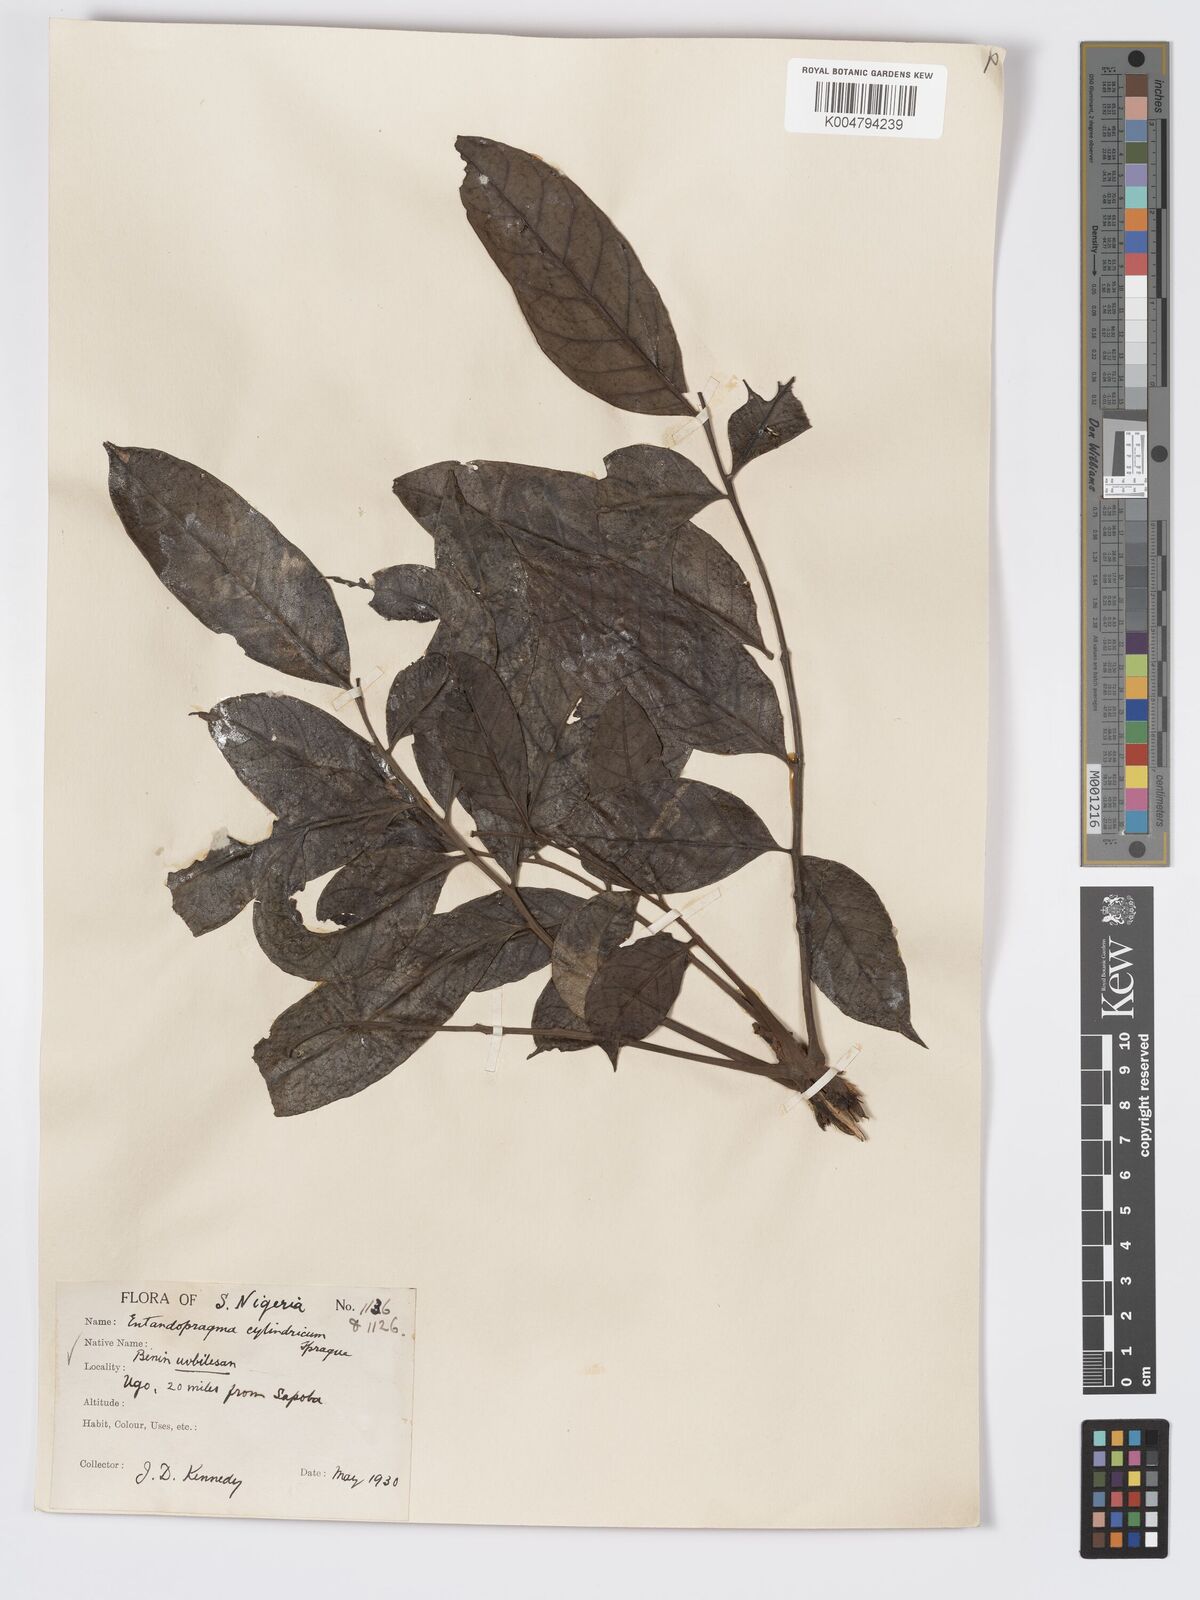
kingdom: Plantae
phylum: Tracheophyta
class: Magnoliopsida
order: Sapindales
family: Meliaceae
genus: Entandrophragma
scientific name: Entandrophragma cylindricum
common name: Sapele
